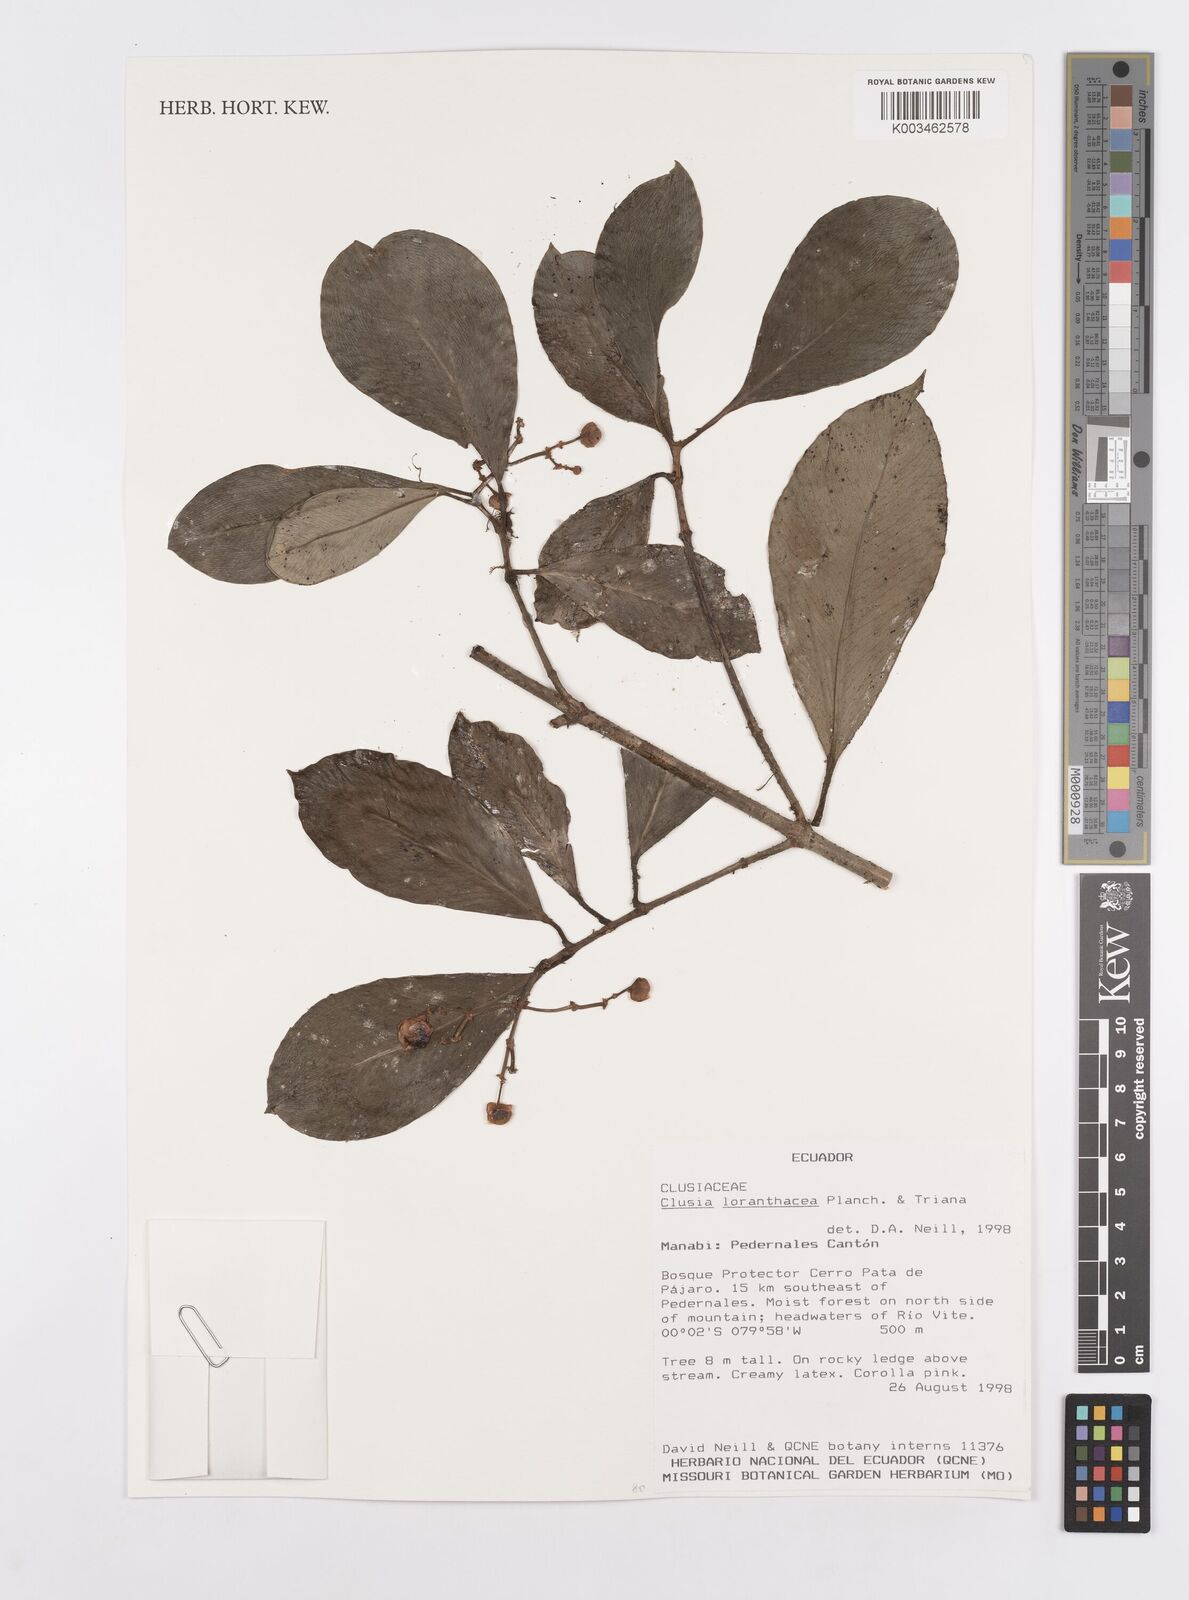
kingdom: Plantae
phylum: Tracheophyta
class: Magnoliopsida
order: Malpighiales
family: Clusiaceae
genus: Clusia
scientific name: Clusia loranthacea
